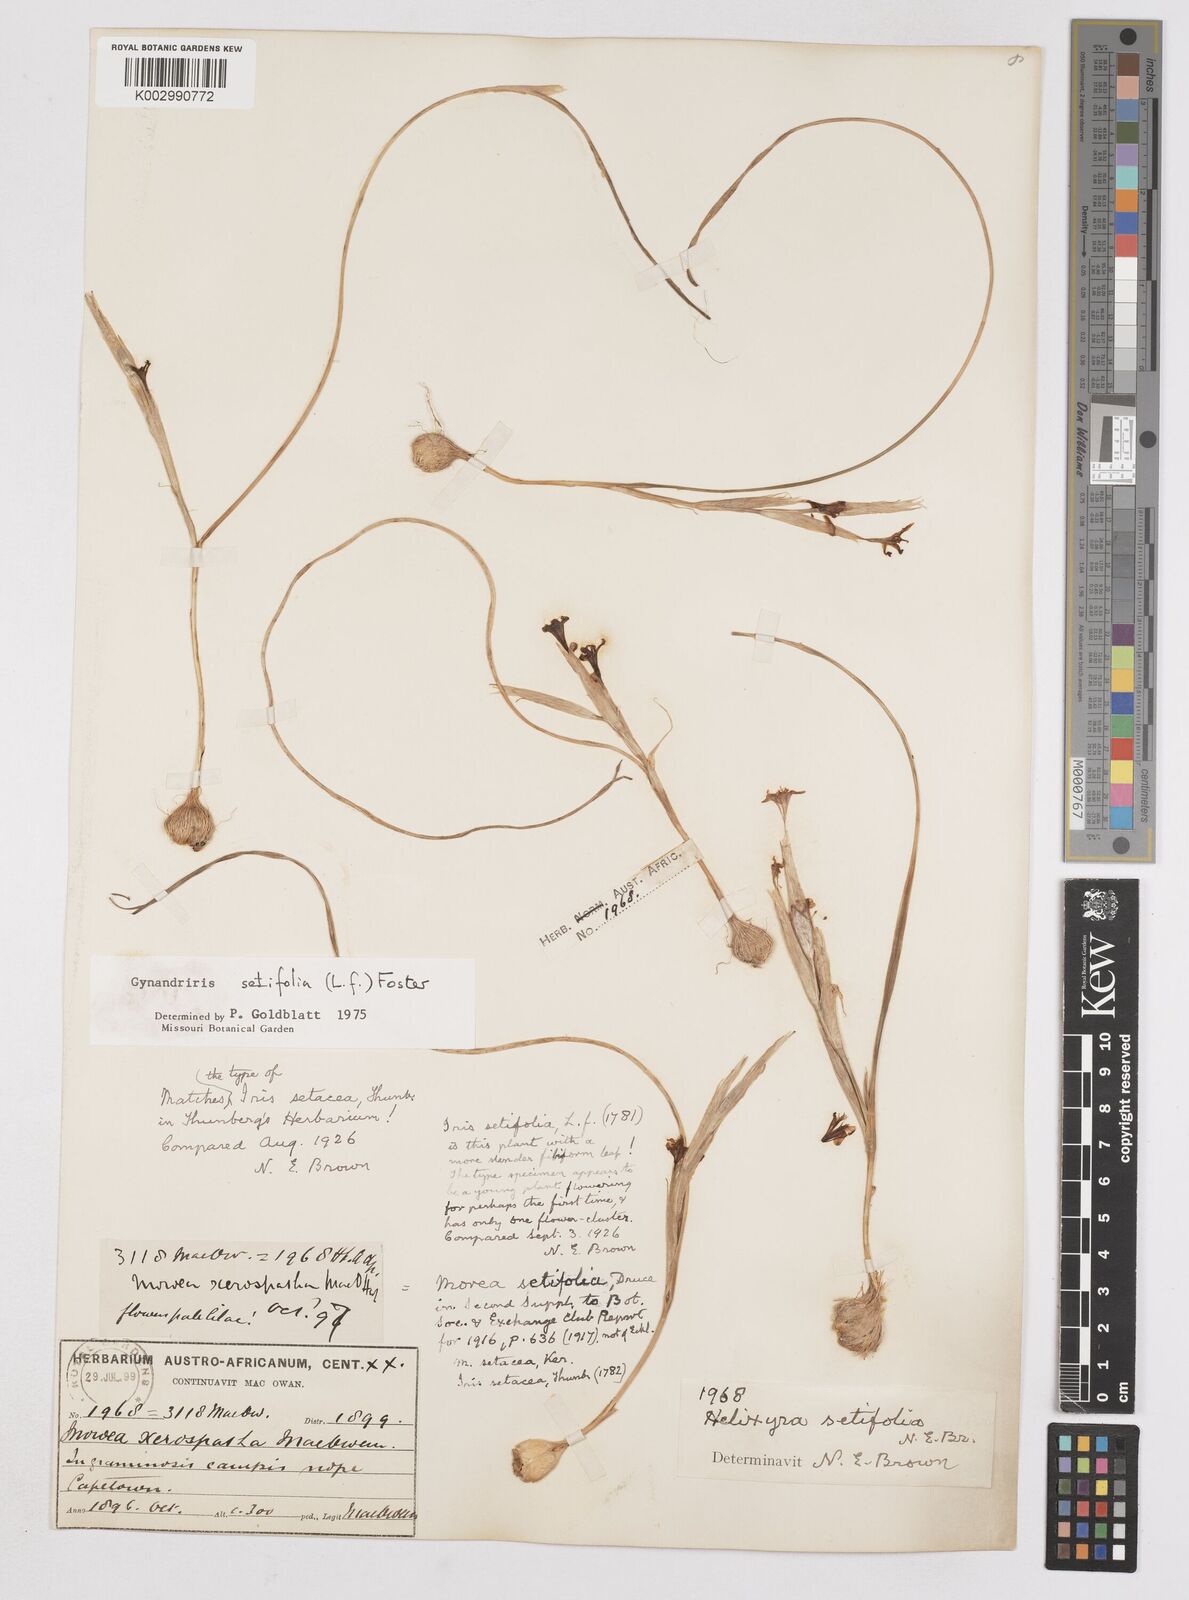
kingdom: Plantae
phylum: Tracheophyta
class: Liliopsida
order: Asparagales
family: Iridaceae
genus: Moraea
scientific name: Moraea setifolia
